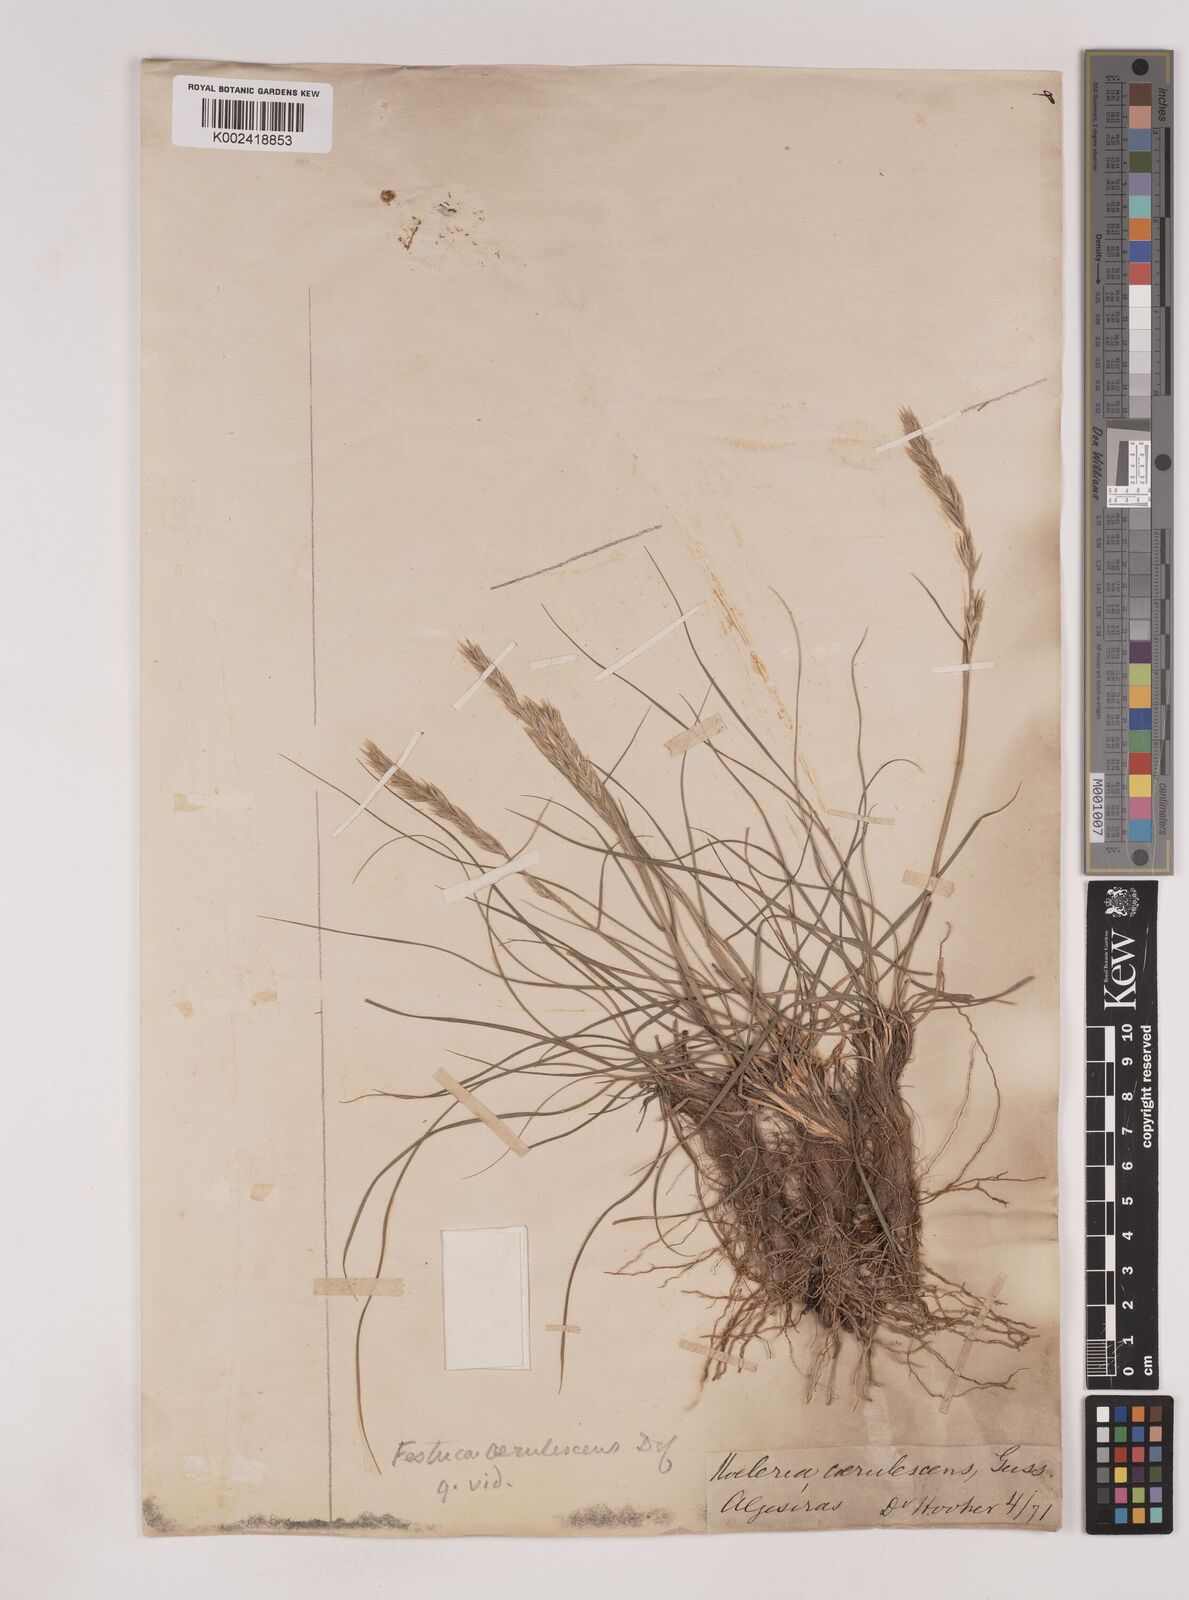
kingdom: Plantae
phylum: Tracheophyta
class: Liliopsida
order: Poales
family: Poaceae
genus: Patzkea
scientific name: Patzkea coerulescens
